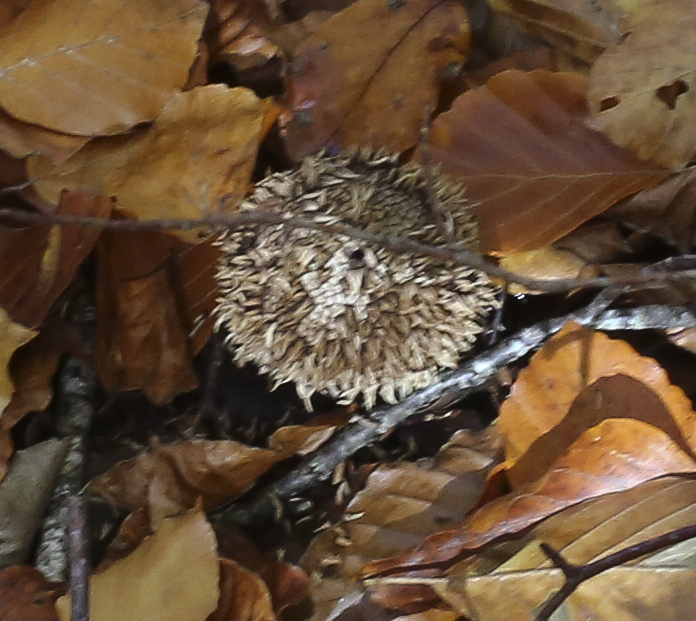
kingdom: Fungi
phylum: Basidiomycota
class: Agaricomycetes
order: Agaricales
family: Lycoperdaceae
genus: Lycoperdon
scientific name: Lycoperdon echinatum
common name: pindsvine-støvbold
